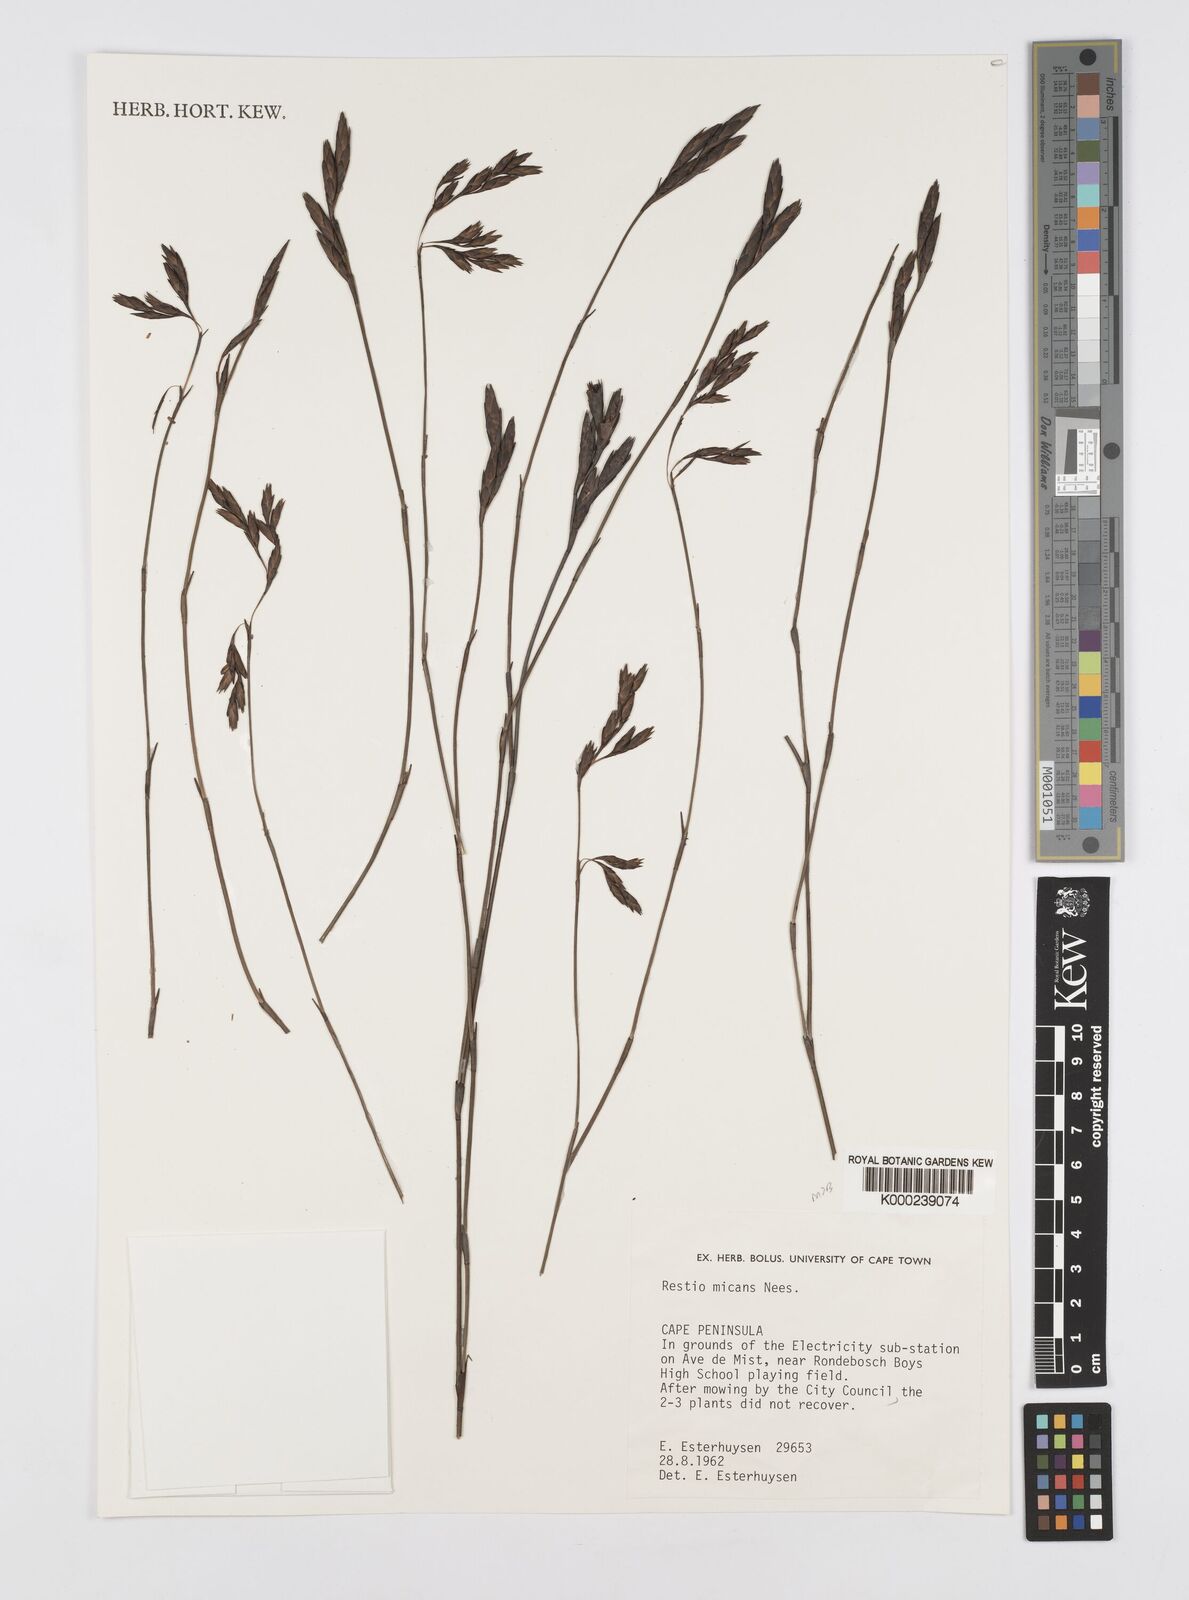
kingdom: Plantae
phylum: Tracheophyta
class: Liliopsida
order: Poales
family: Restionaceae
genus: Restio
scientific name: Restio micans
